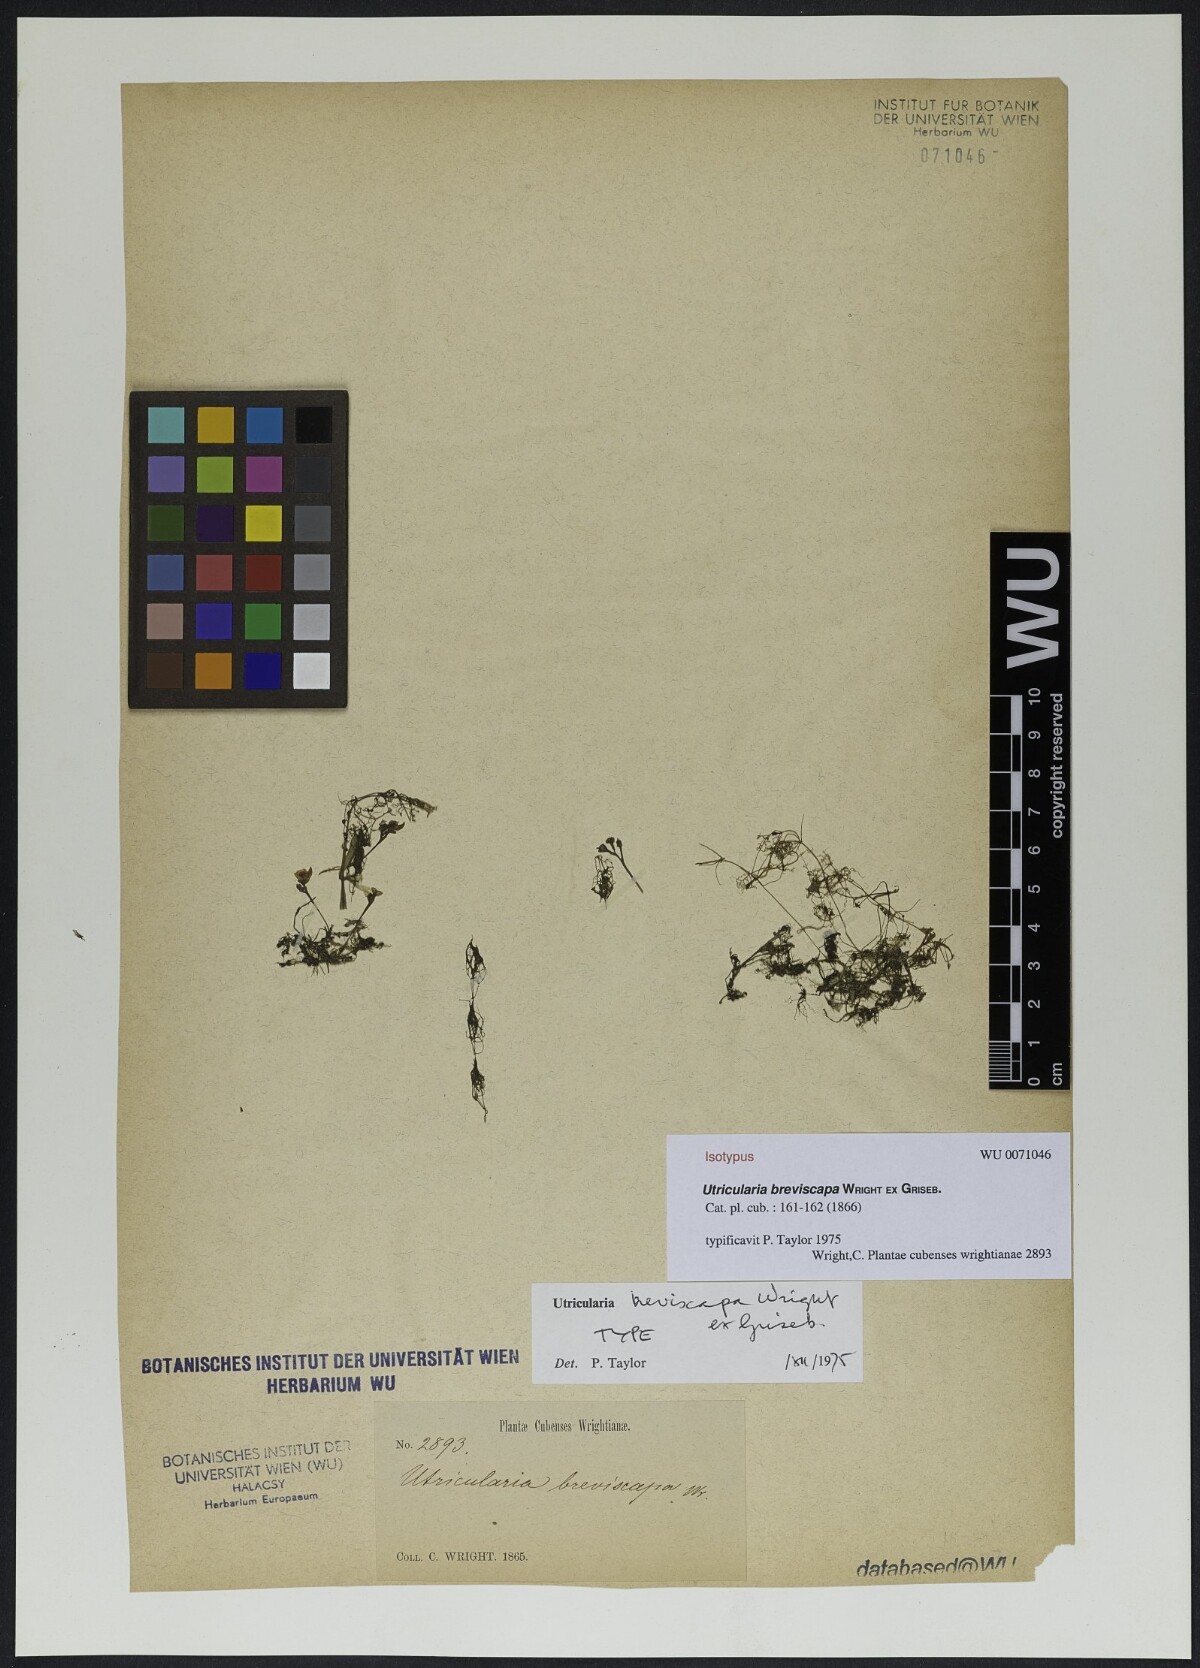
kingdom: Plantae
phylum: Tracheophyta
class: Magnoliopsida
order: Lamiales
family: Lentibulariaceae
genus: Utricularia
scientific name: Utricularia breviscapa
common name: Bladderwort
